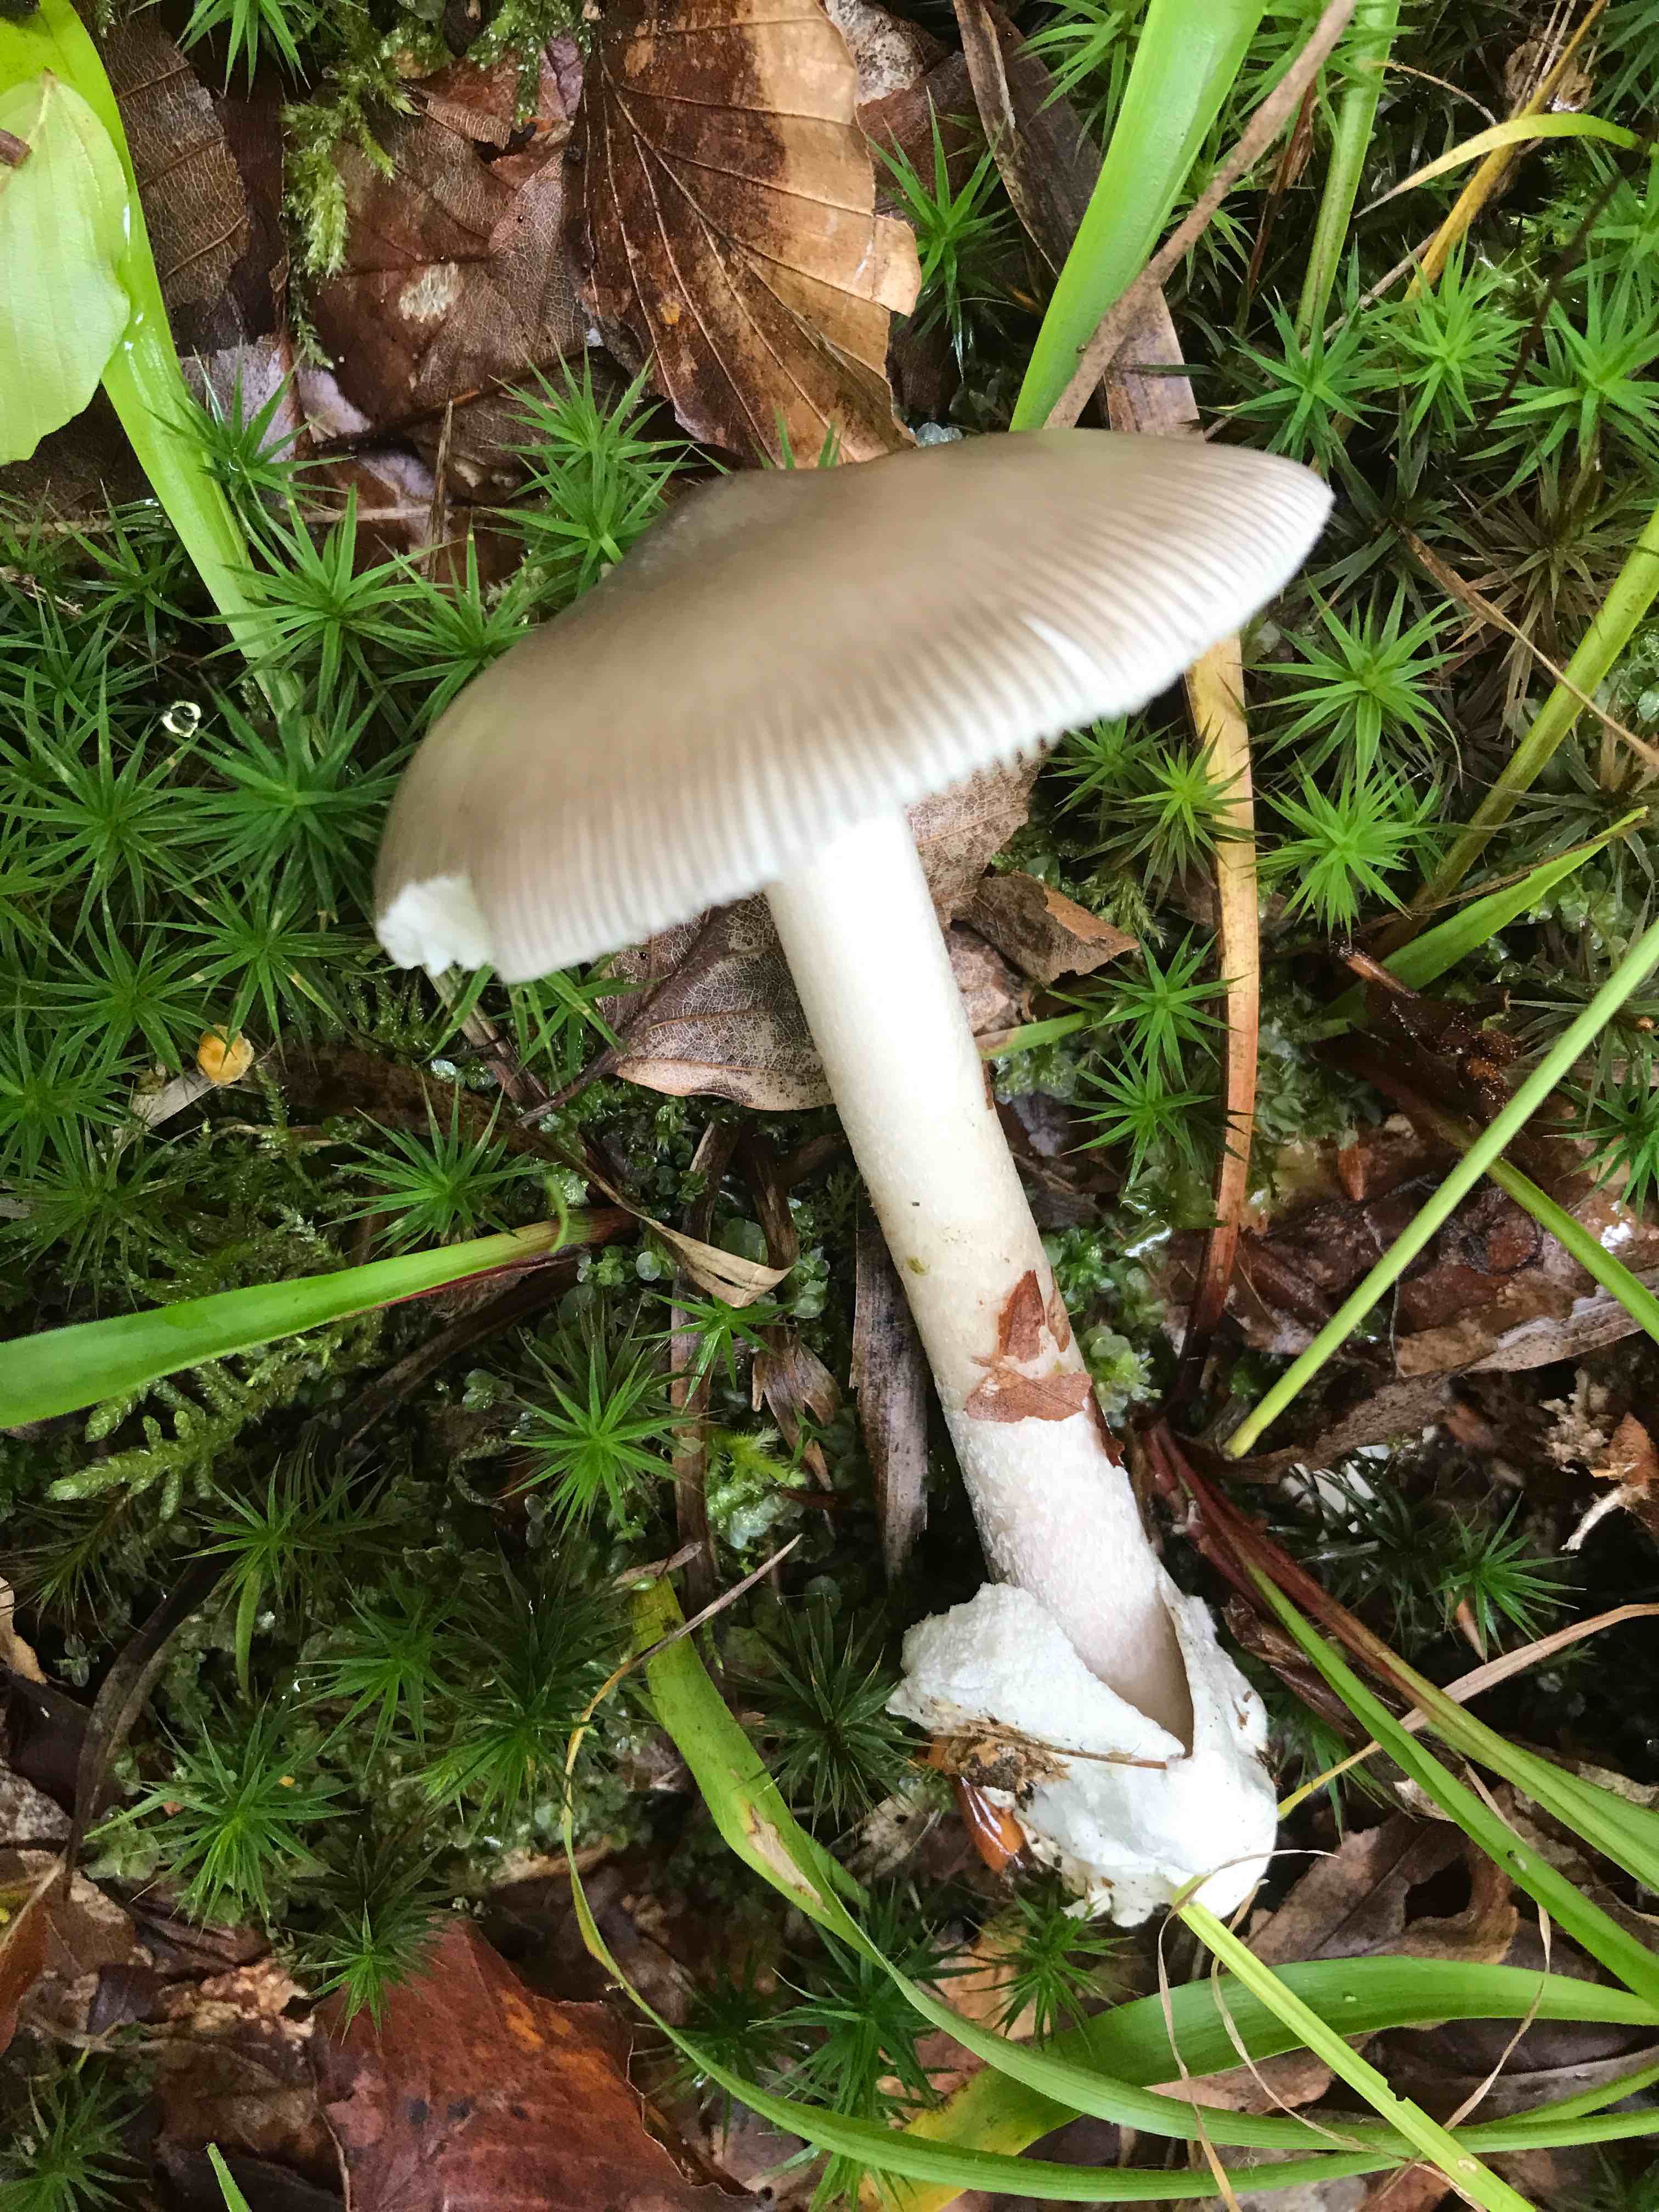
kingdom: Fungi
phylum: Basidiomycota
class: Agaricomycetes
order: Agaricales
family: Amanitaceae
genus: Amanita
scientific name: Amanita vaginata
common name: grå kam-fluesvamp
